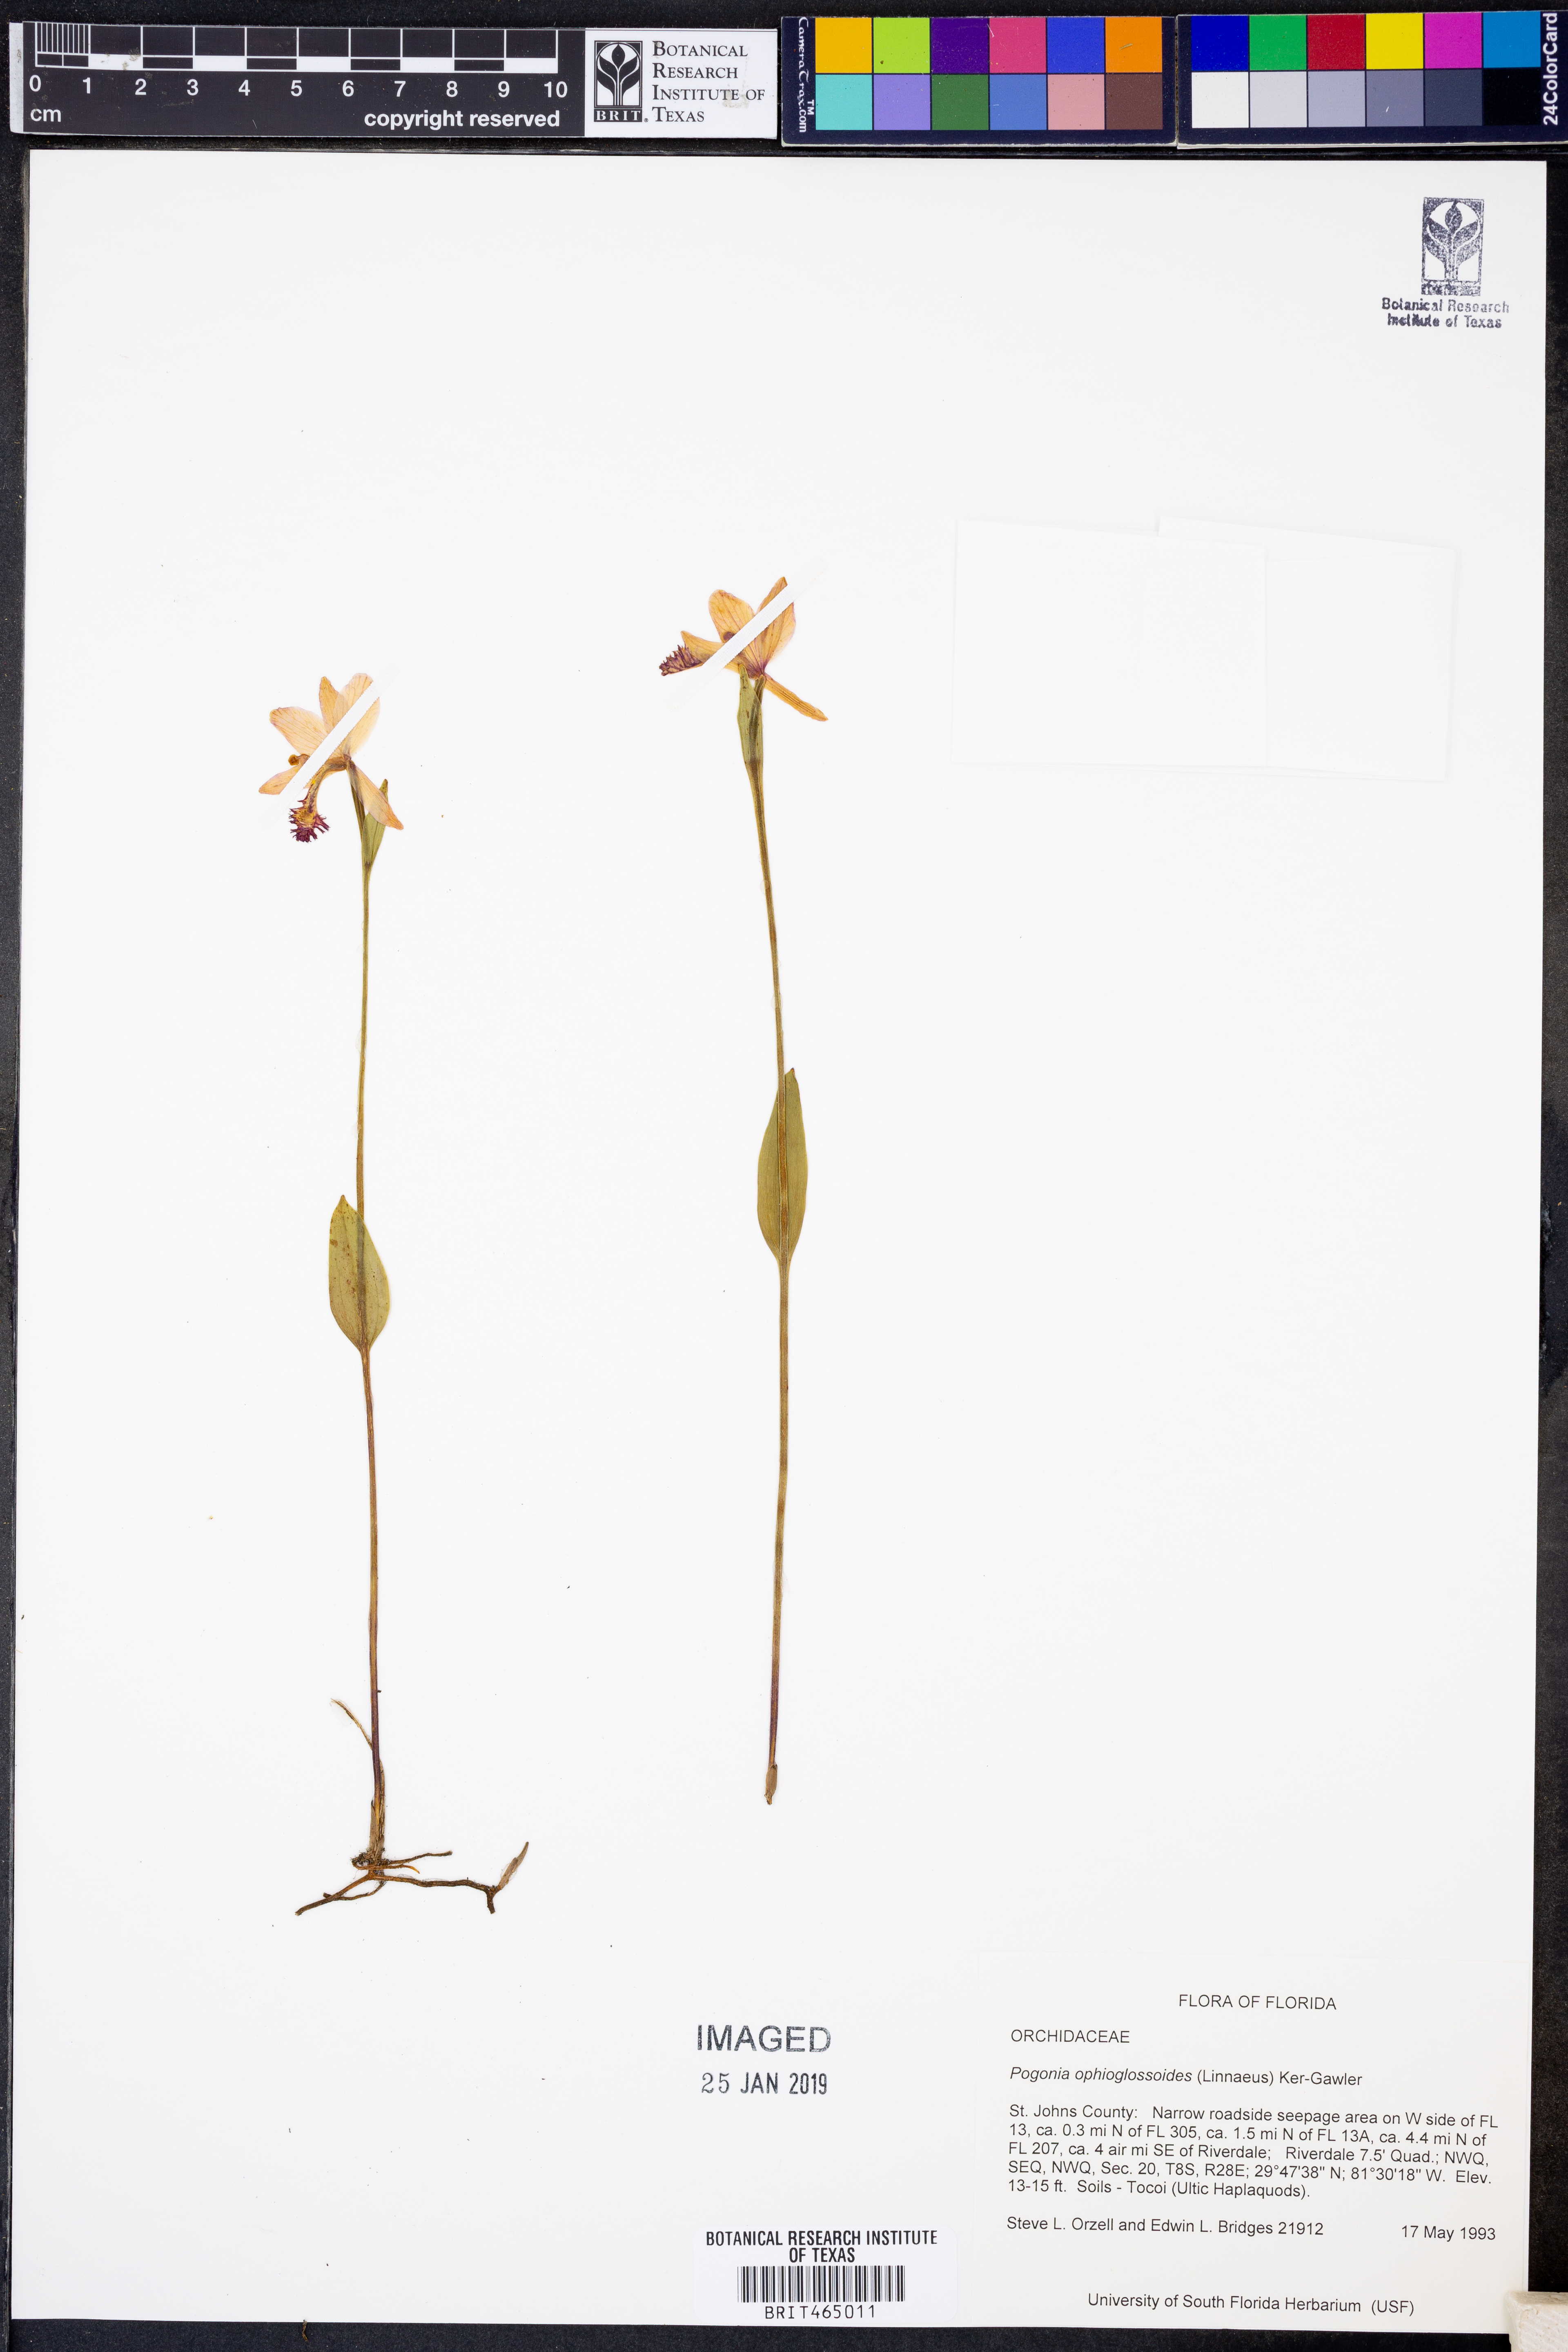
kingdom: Plantae
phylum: Tracheophyta
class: Liliopsida
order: Asparagales
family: Orchidaceae
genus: Pogonia
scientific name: Pogonia ophioglossoides
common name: Rose pogonia
